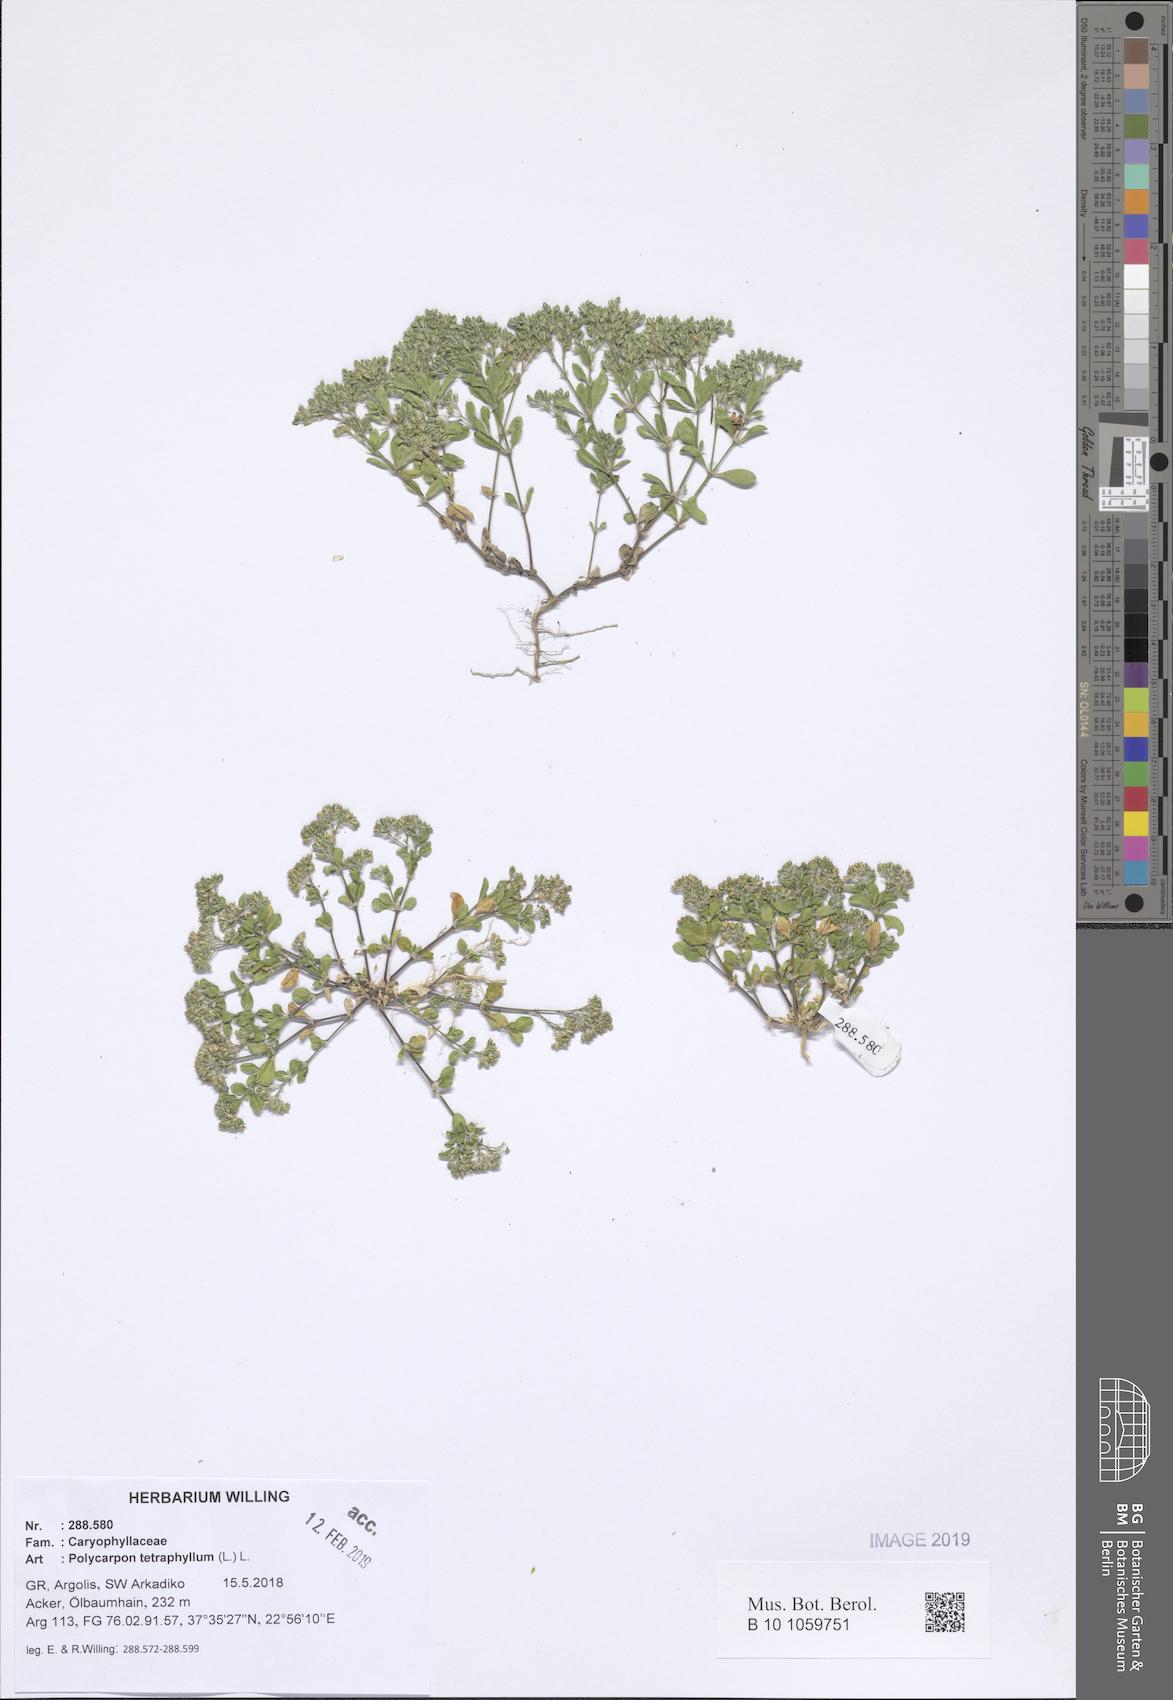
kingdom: Plantae
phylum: Tracheophyta
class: Magnoliopsida
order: Caryophyllales
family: Caryophyllaceae
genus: Polycarpon
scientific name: Polycarpon tetraphyllum
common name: Four-leaved all-seed
